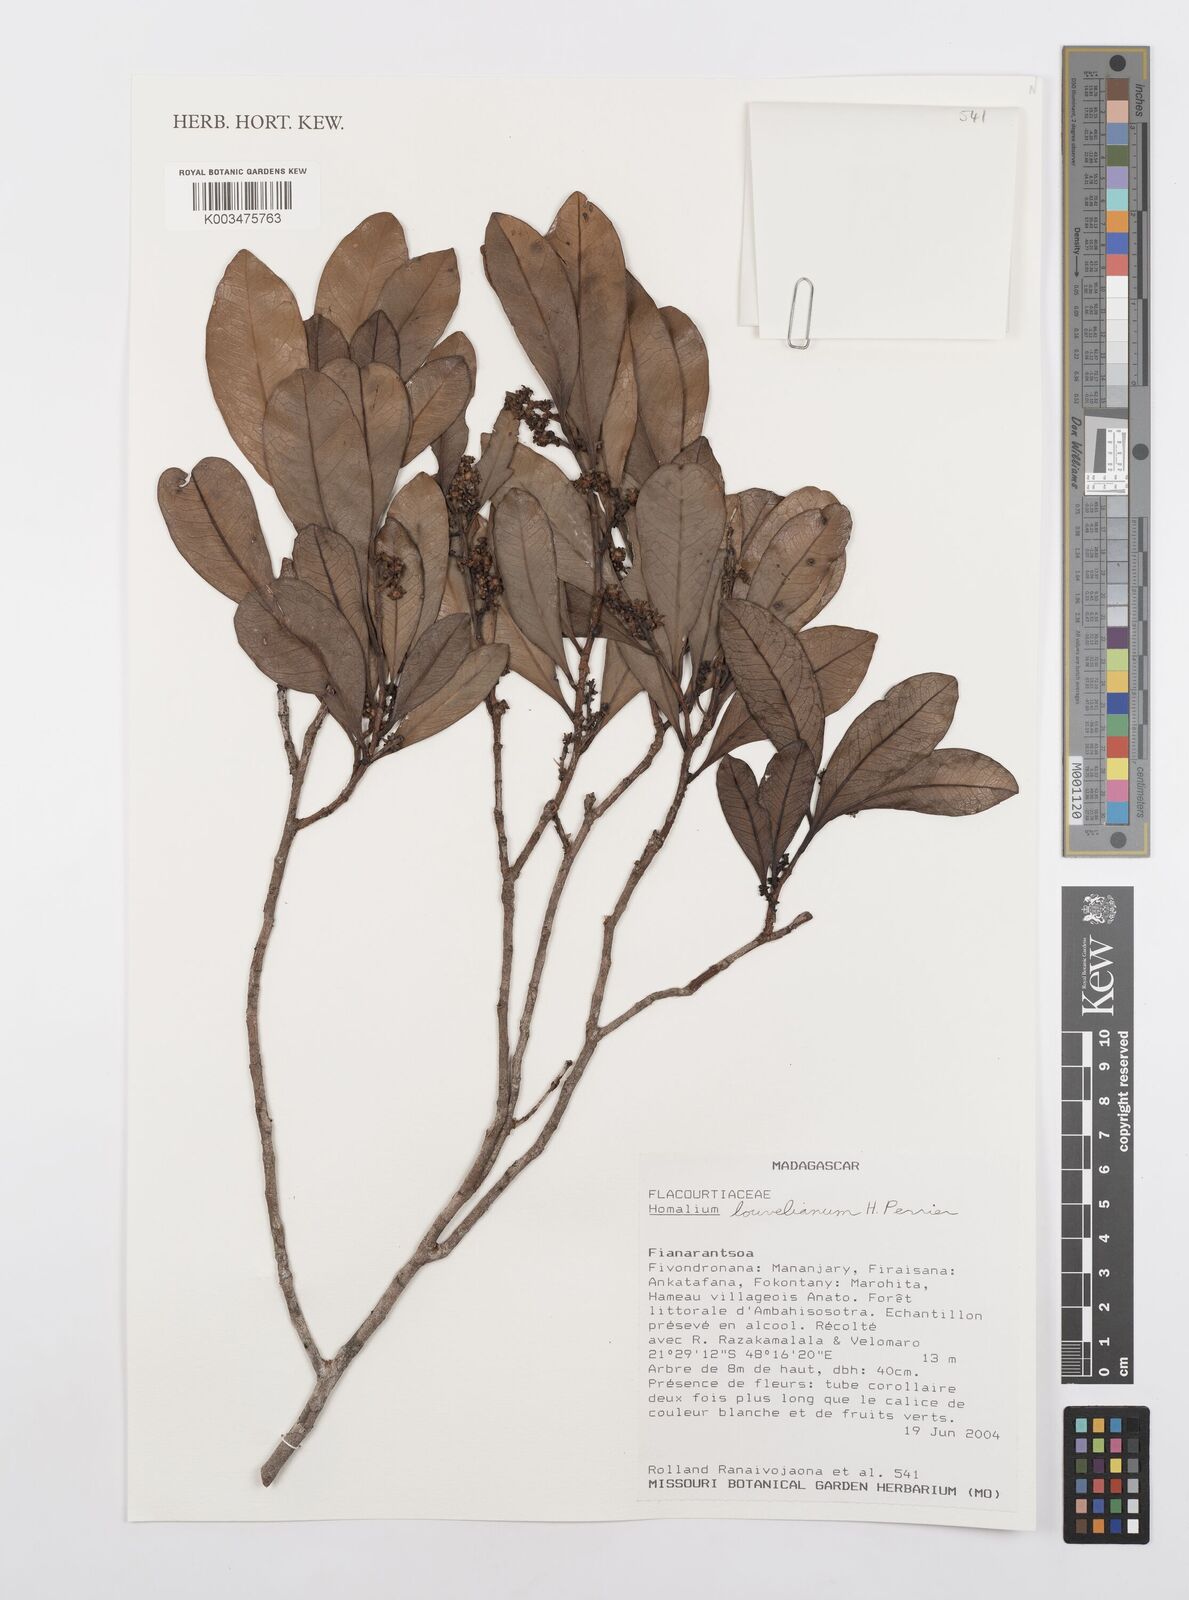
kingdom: Plantae
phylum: Tracheophyta
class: Magnoliopsida
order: Malpighiales
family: Salicaceae
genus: Homalium
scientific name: Homalium louvelianum
